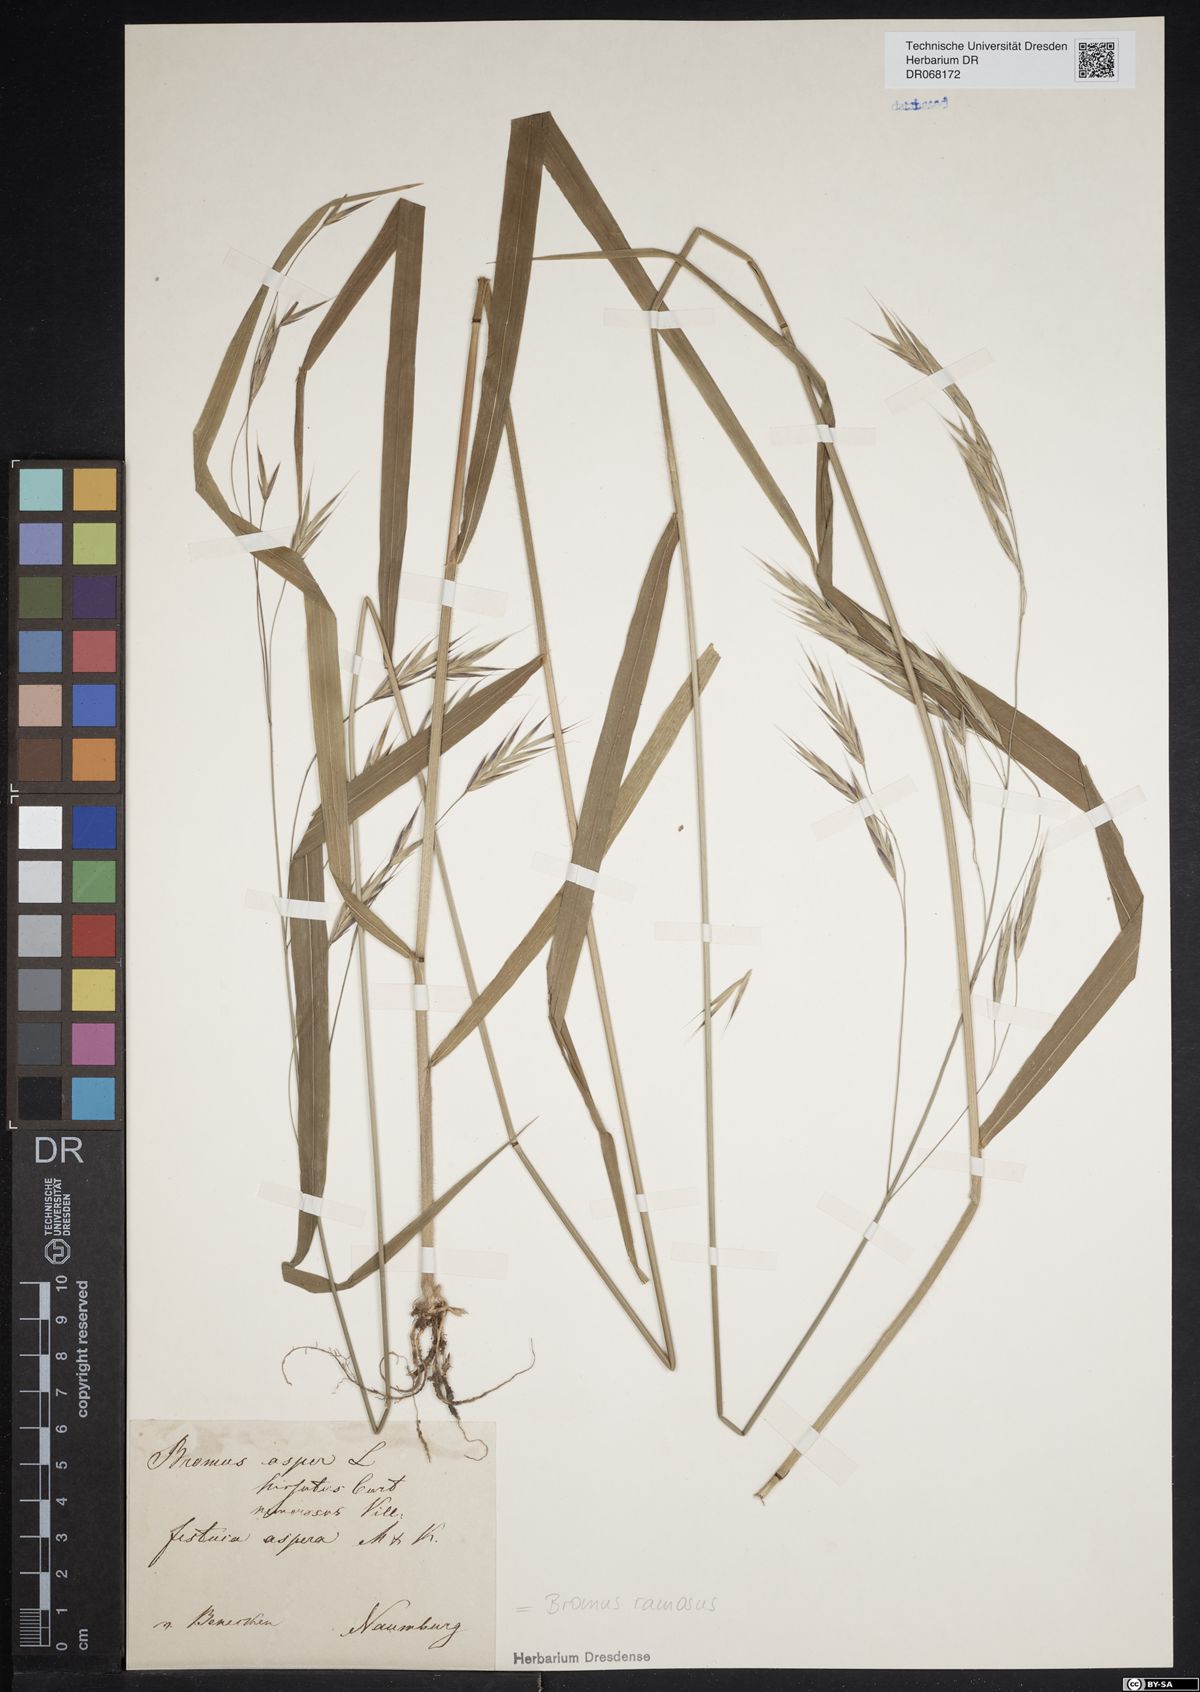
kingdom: Plantae
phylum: Tracheophyta
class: Liliopsida
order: Poales
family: Poaceae
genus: Bromus
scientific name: Bromus ramosus
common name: Hairy brome
